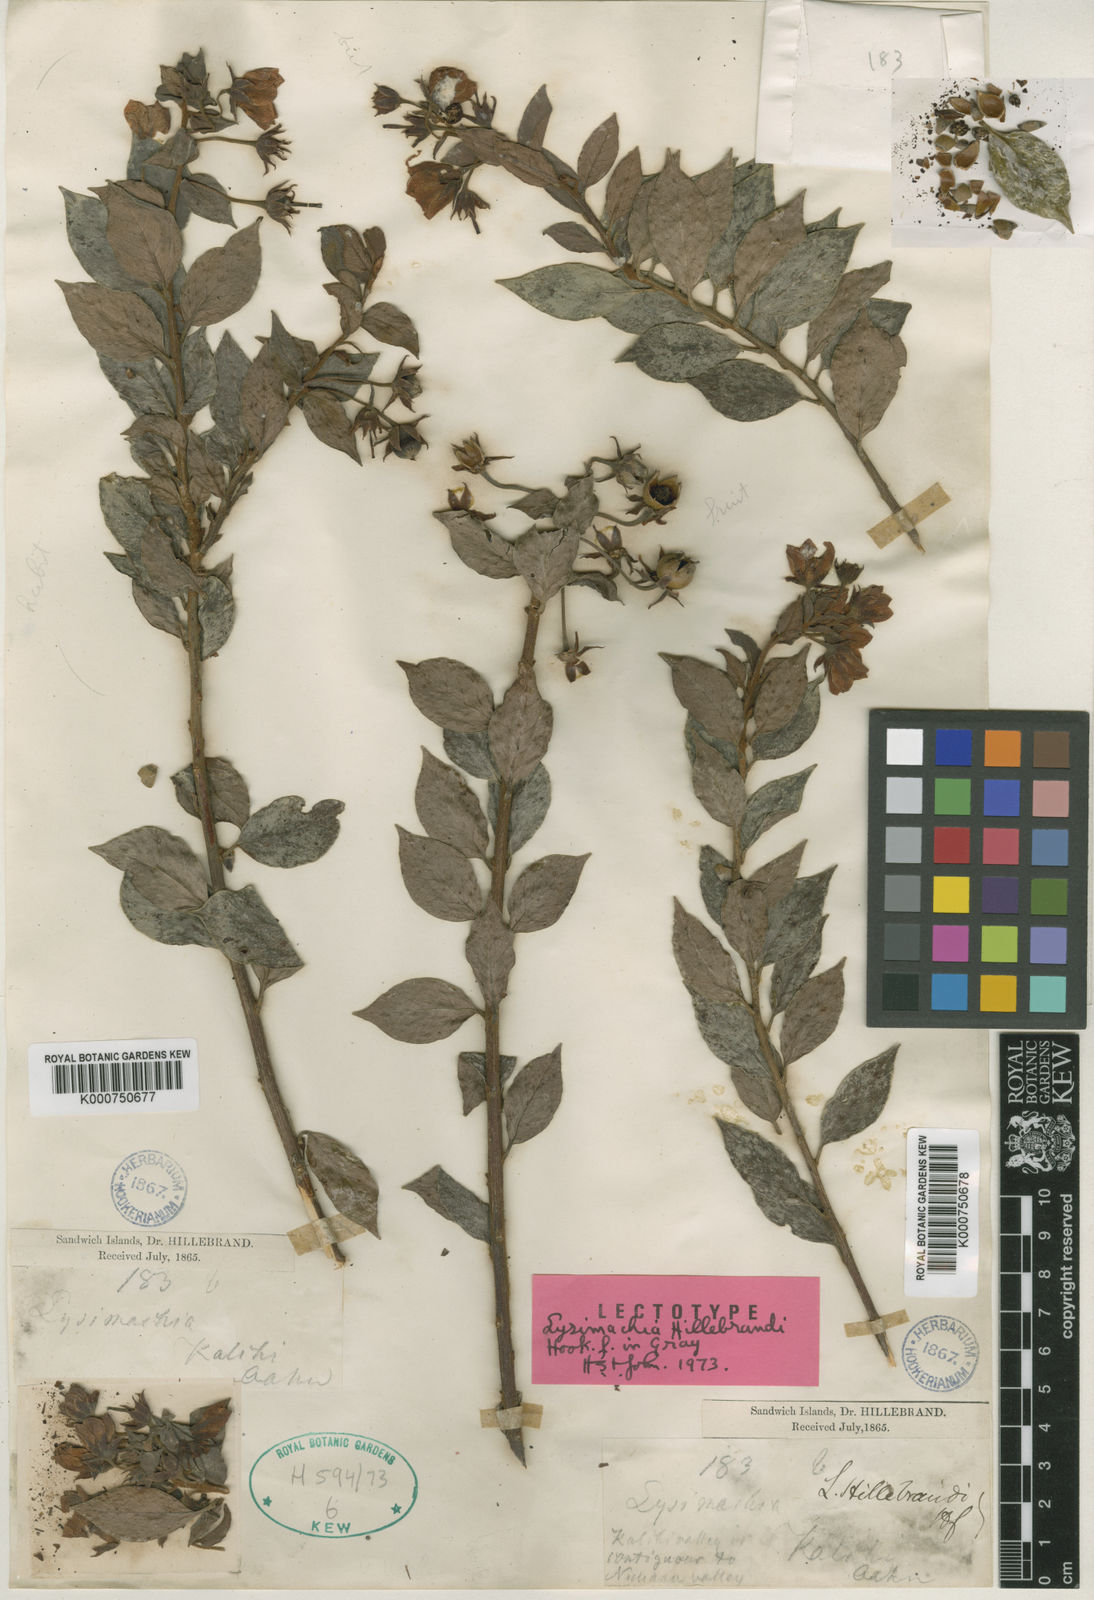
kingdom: Plantae
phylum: Tracheophyta
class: Magnoliopsida
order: Ericales
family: Primulaceae
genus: Lysimachia
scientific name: Lysimachia hillebrandii
